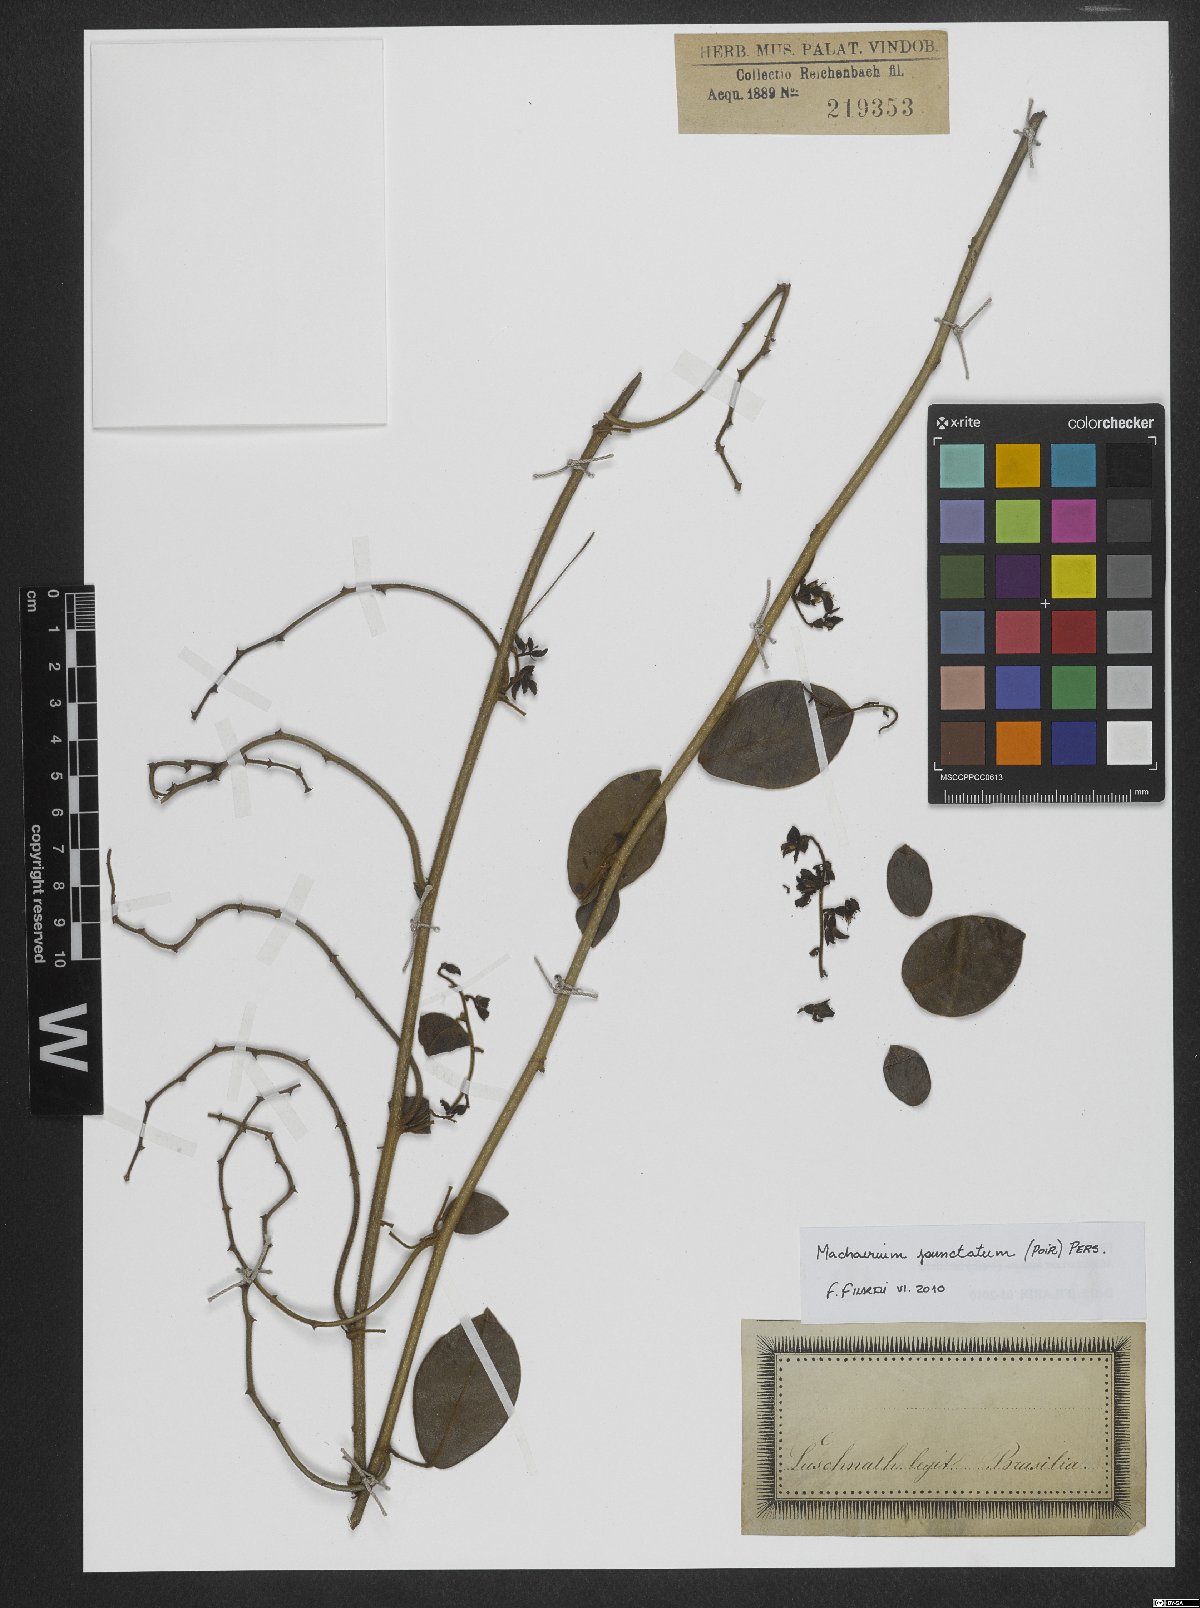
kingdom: Plantae
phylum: Tracheophyta
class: Magnoliopsida
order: Fabales
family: Fabaceae
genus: Machaerium
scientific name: Machaerium punctatum
